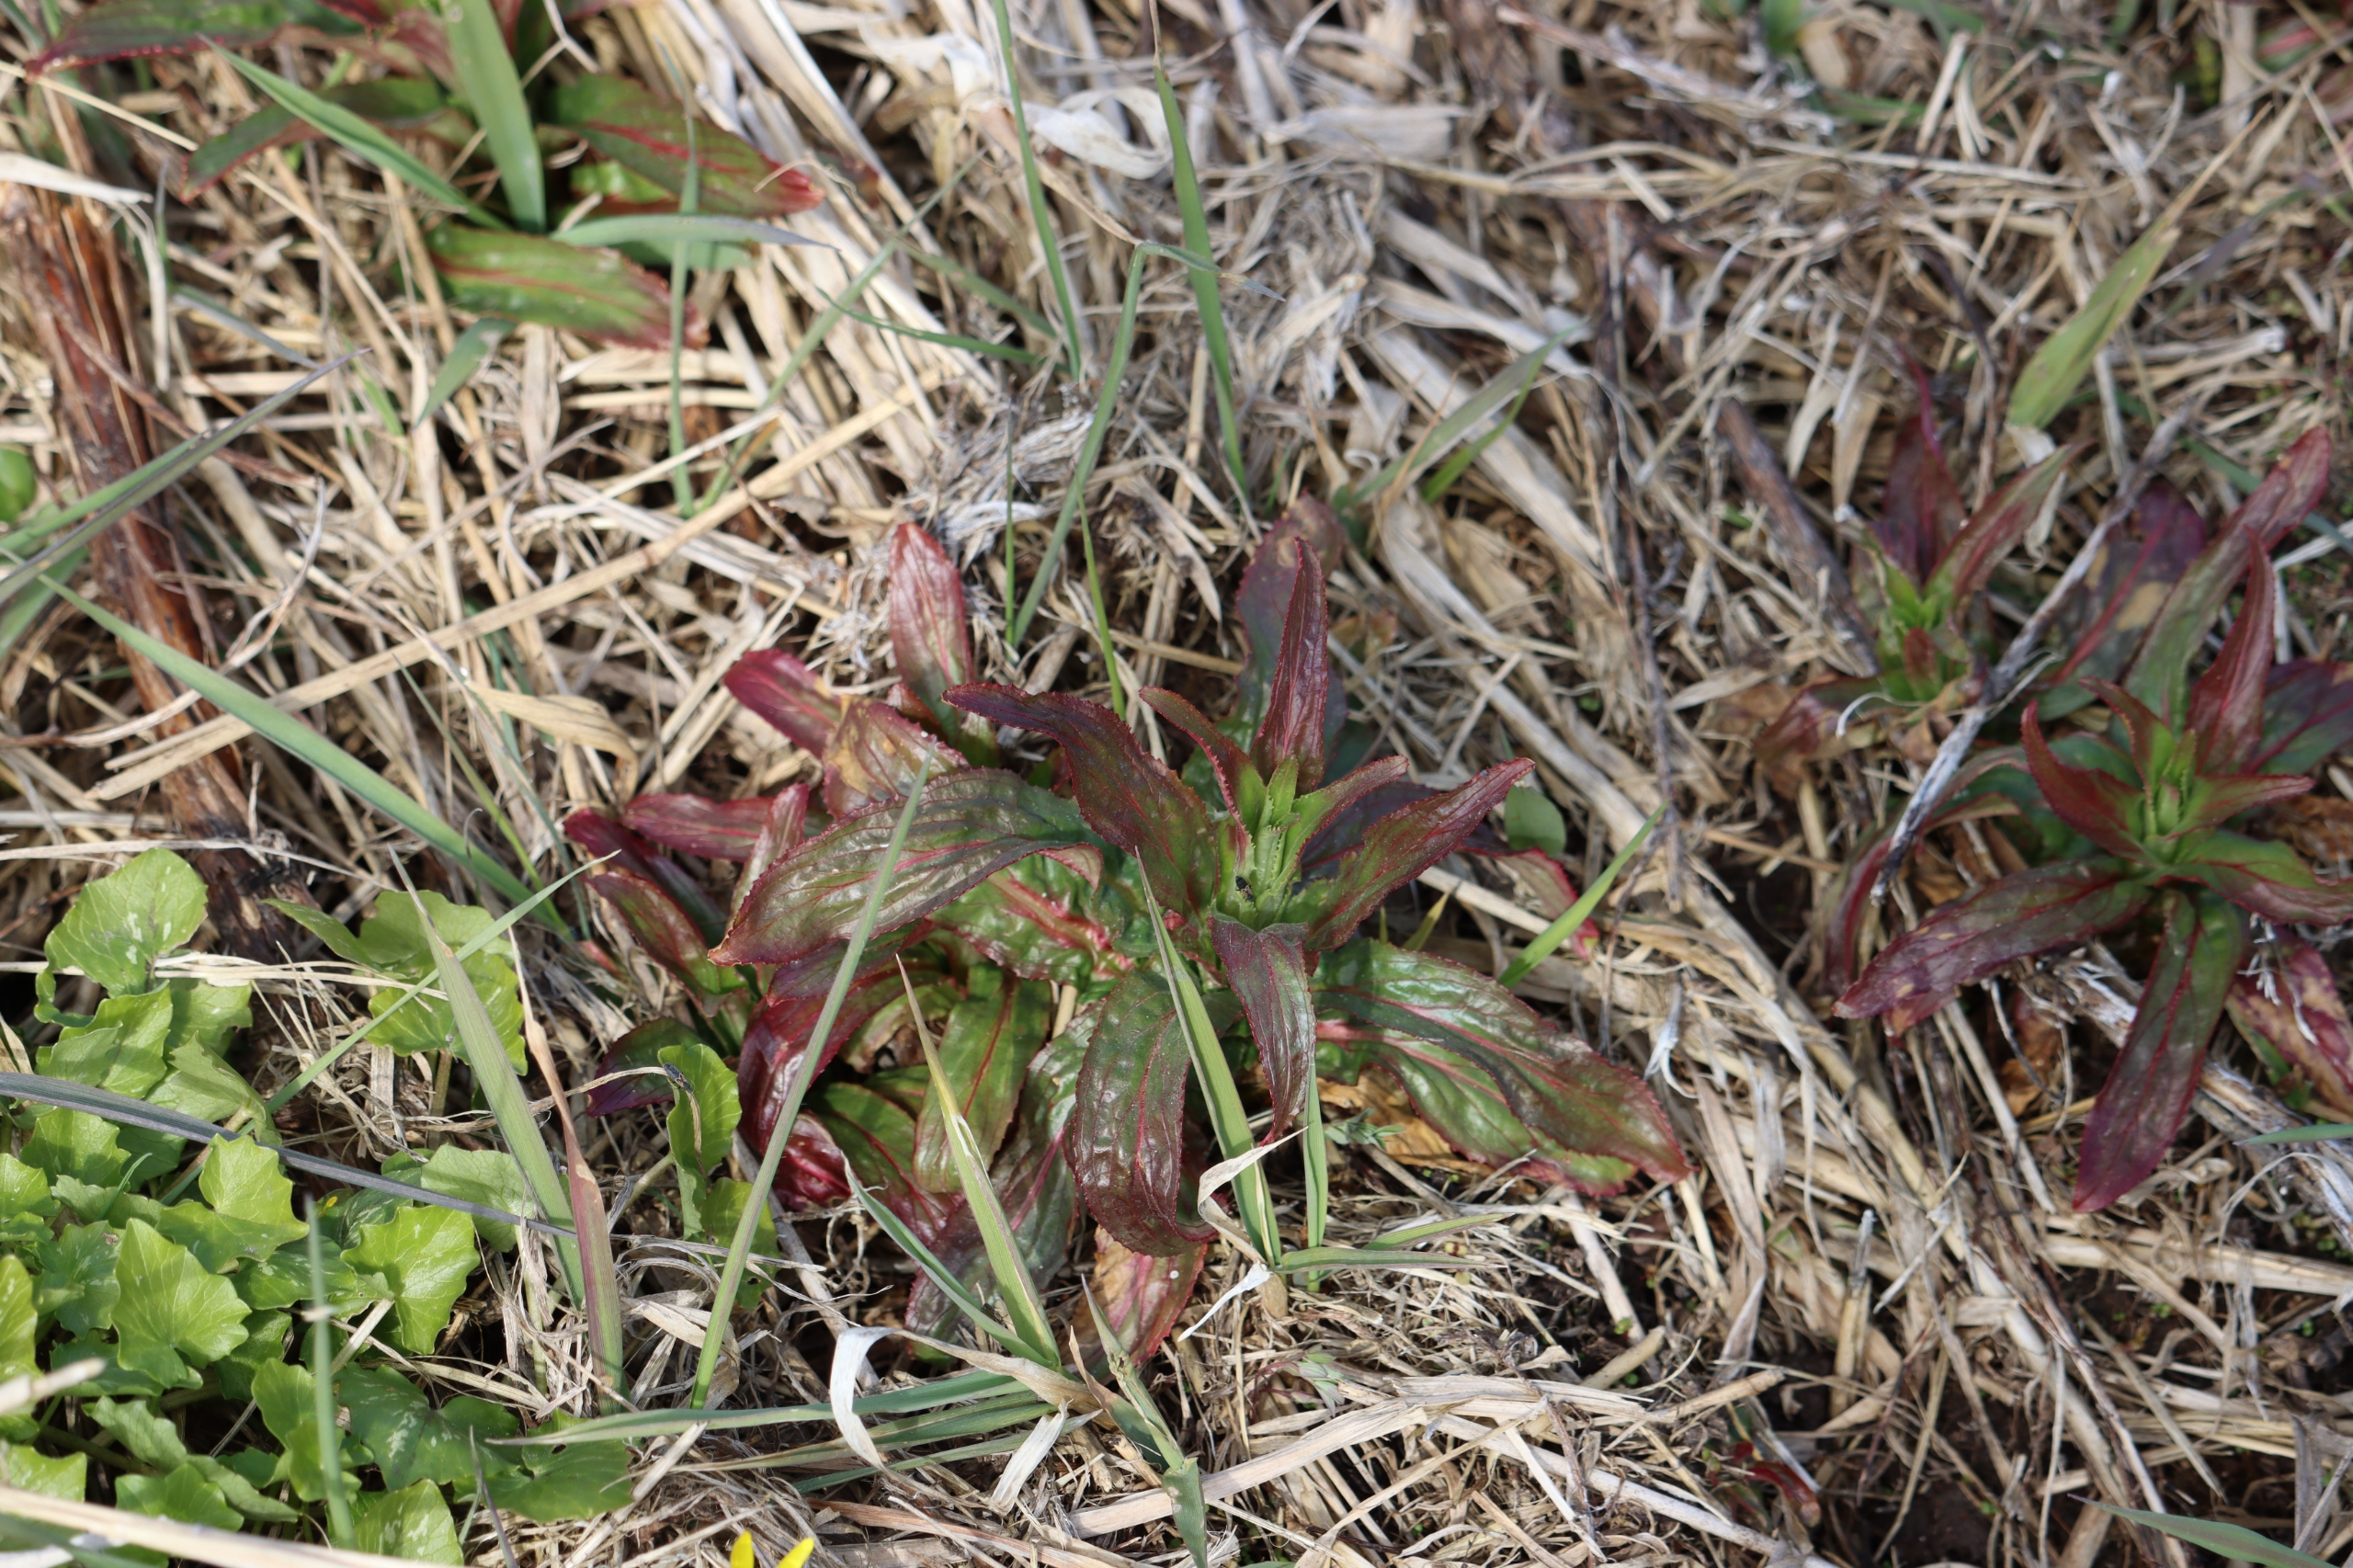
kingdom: Plantae
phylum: Tracheophyta
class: Magnoliopsida
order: Myrtales
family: Onagraceae
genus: Epilobium
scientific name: Epilobium hirsutum
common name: Lådden dueurt
